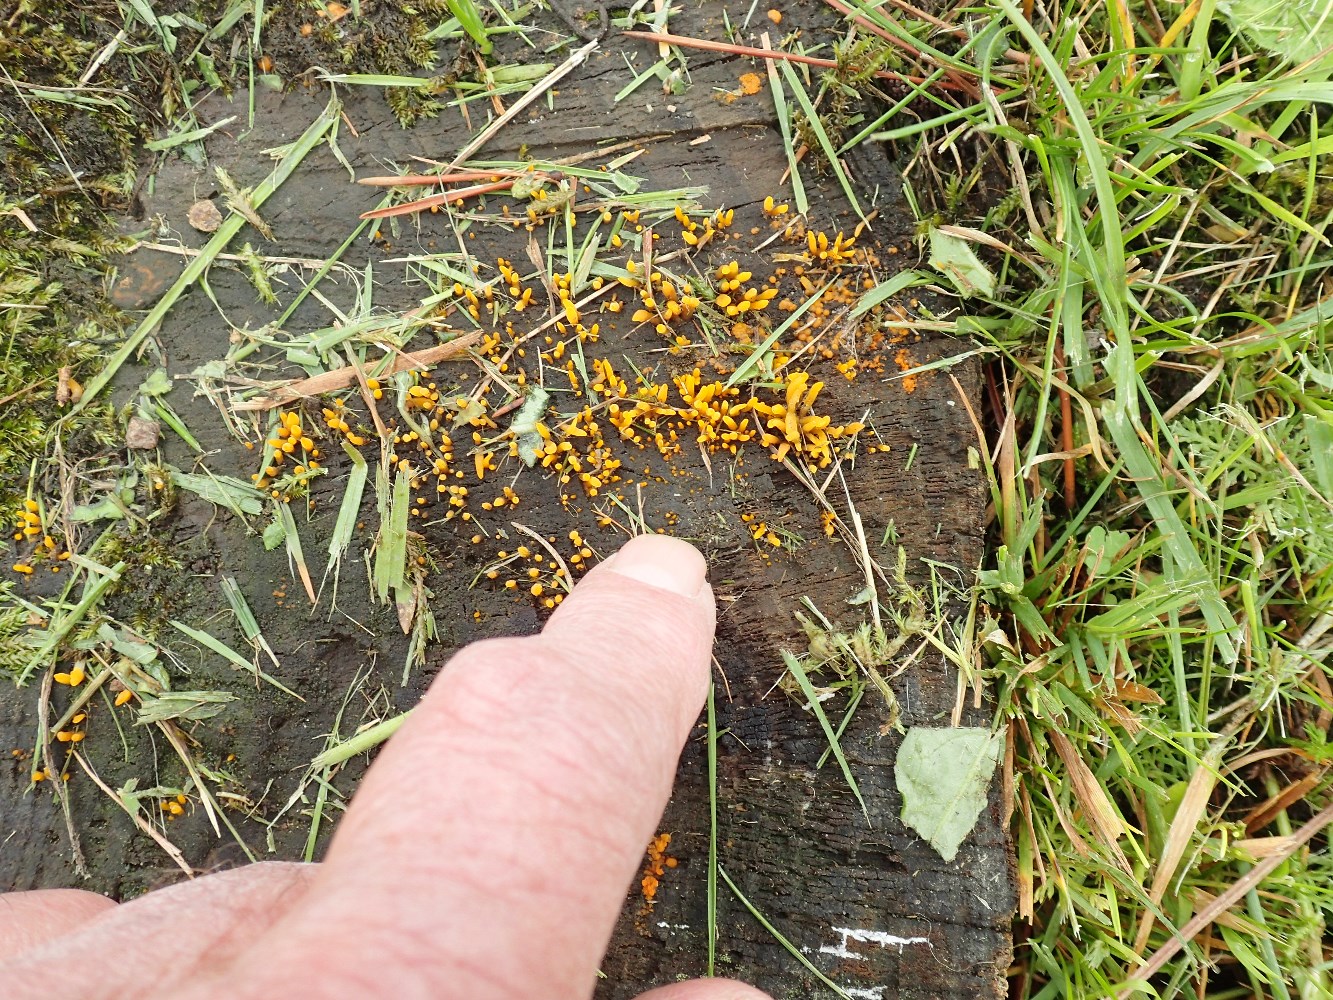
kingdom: Fungi
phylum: Basidiomycota
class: Dacrymycetes
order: Dacrymycetales
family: Dacrymycetaceae
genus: Calocera
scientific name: Calocera furcata
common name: fyrre-guldgaffel
